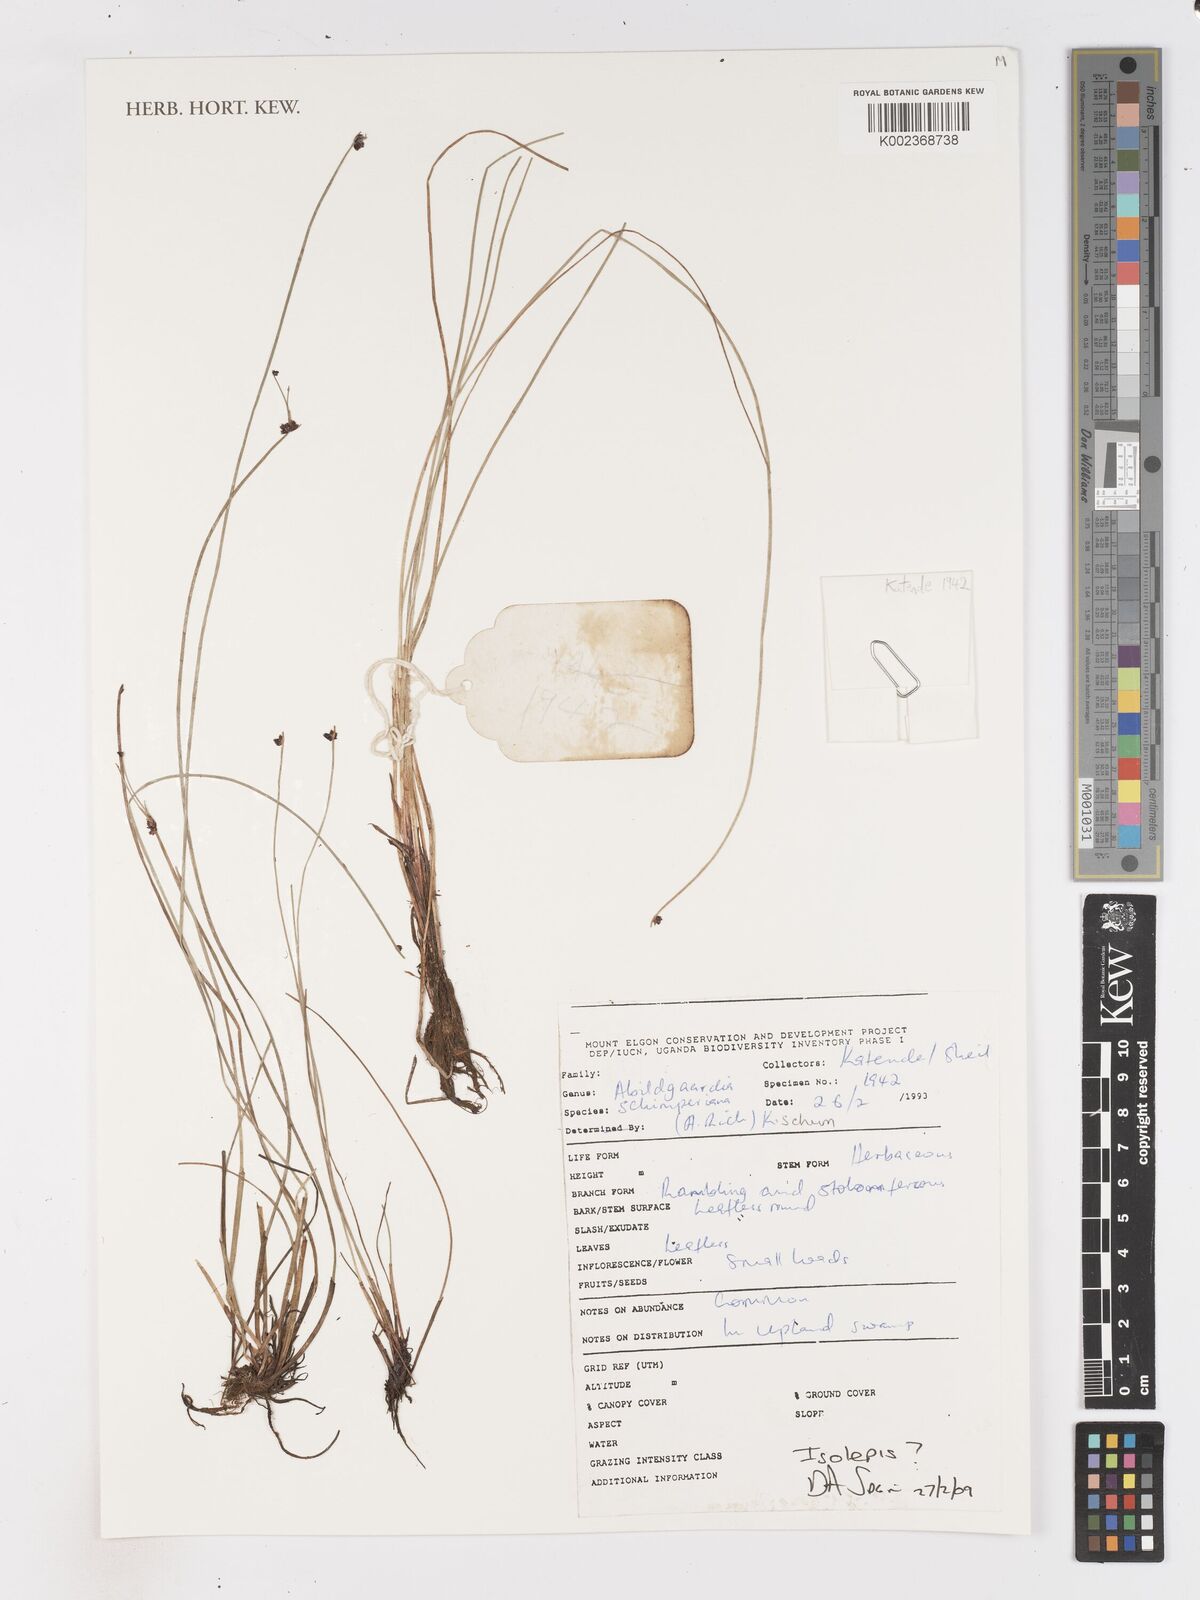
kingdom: Plantae
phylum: Tracheophyta
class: Liliopsida
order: Poales
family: Cyperaceae
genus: Isolepis
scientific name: Isolepis
